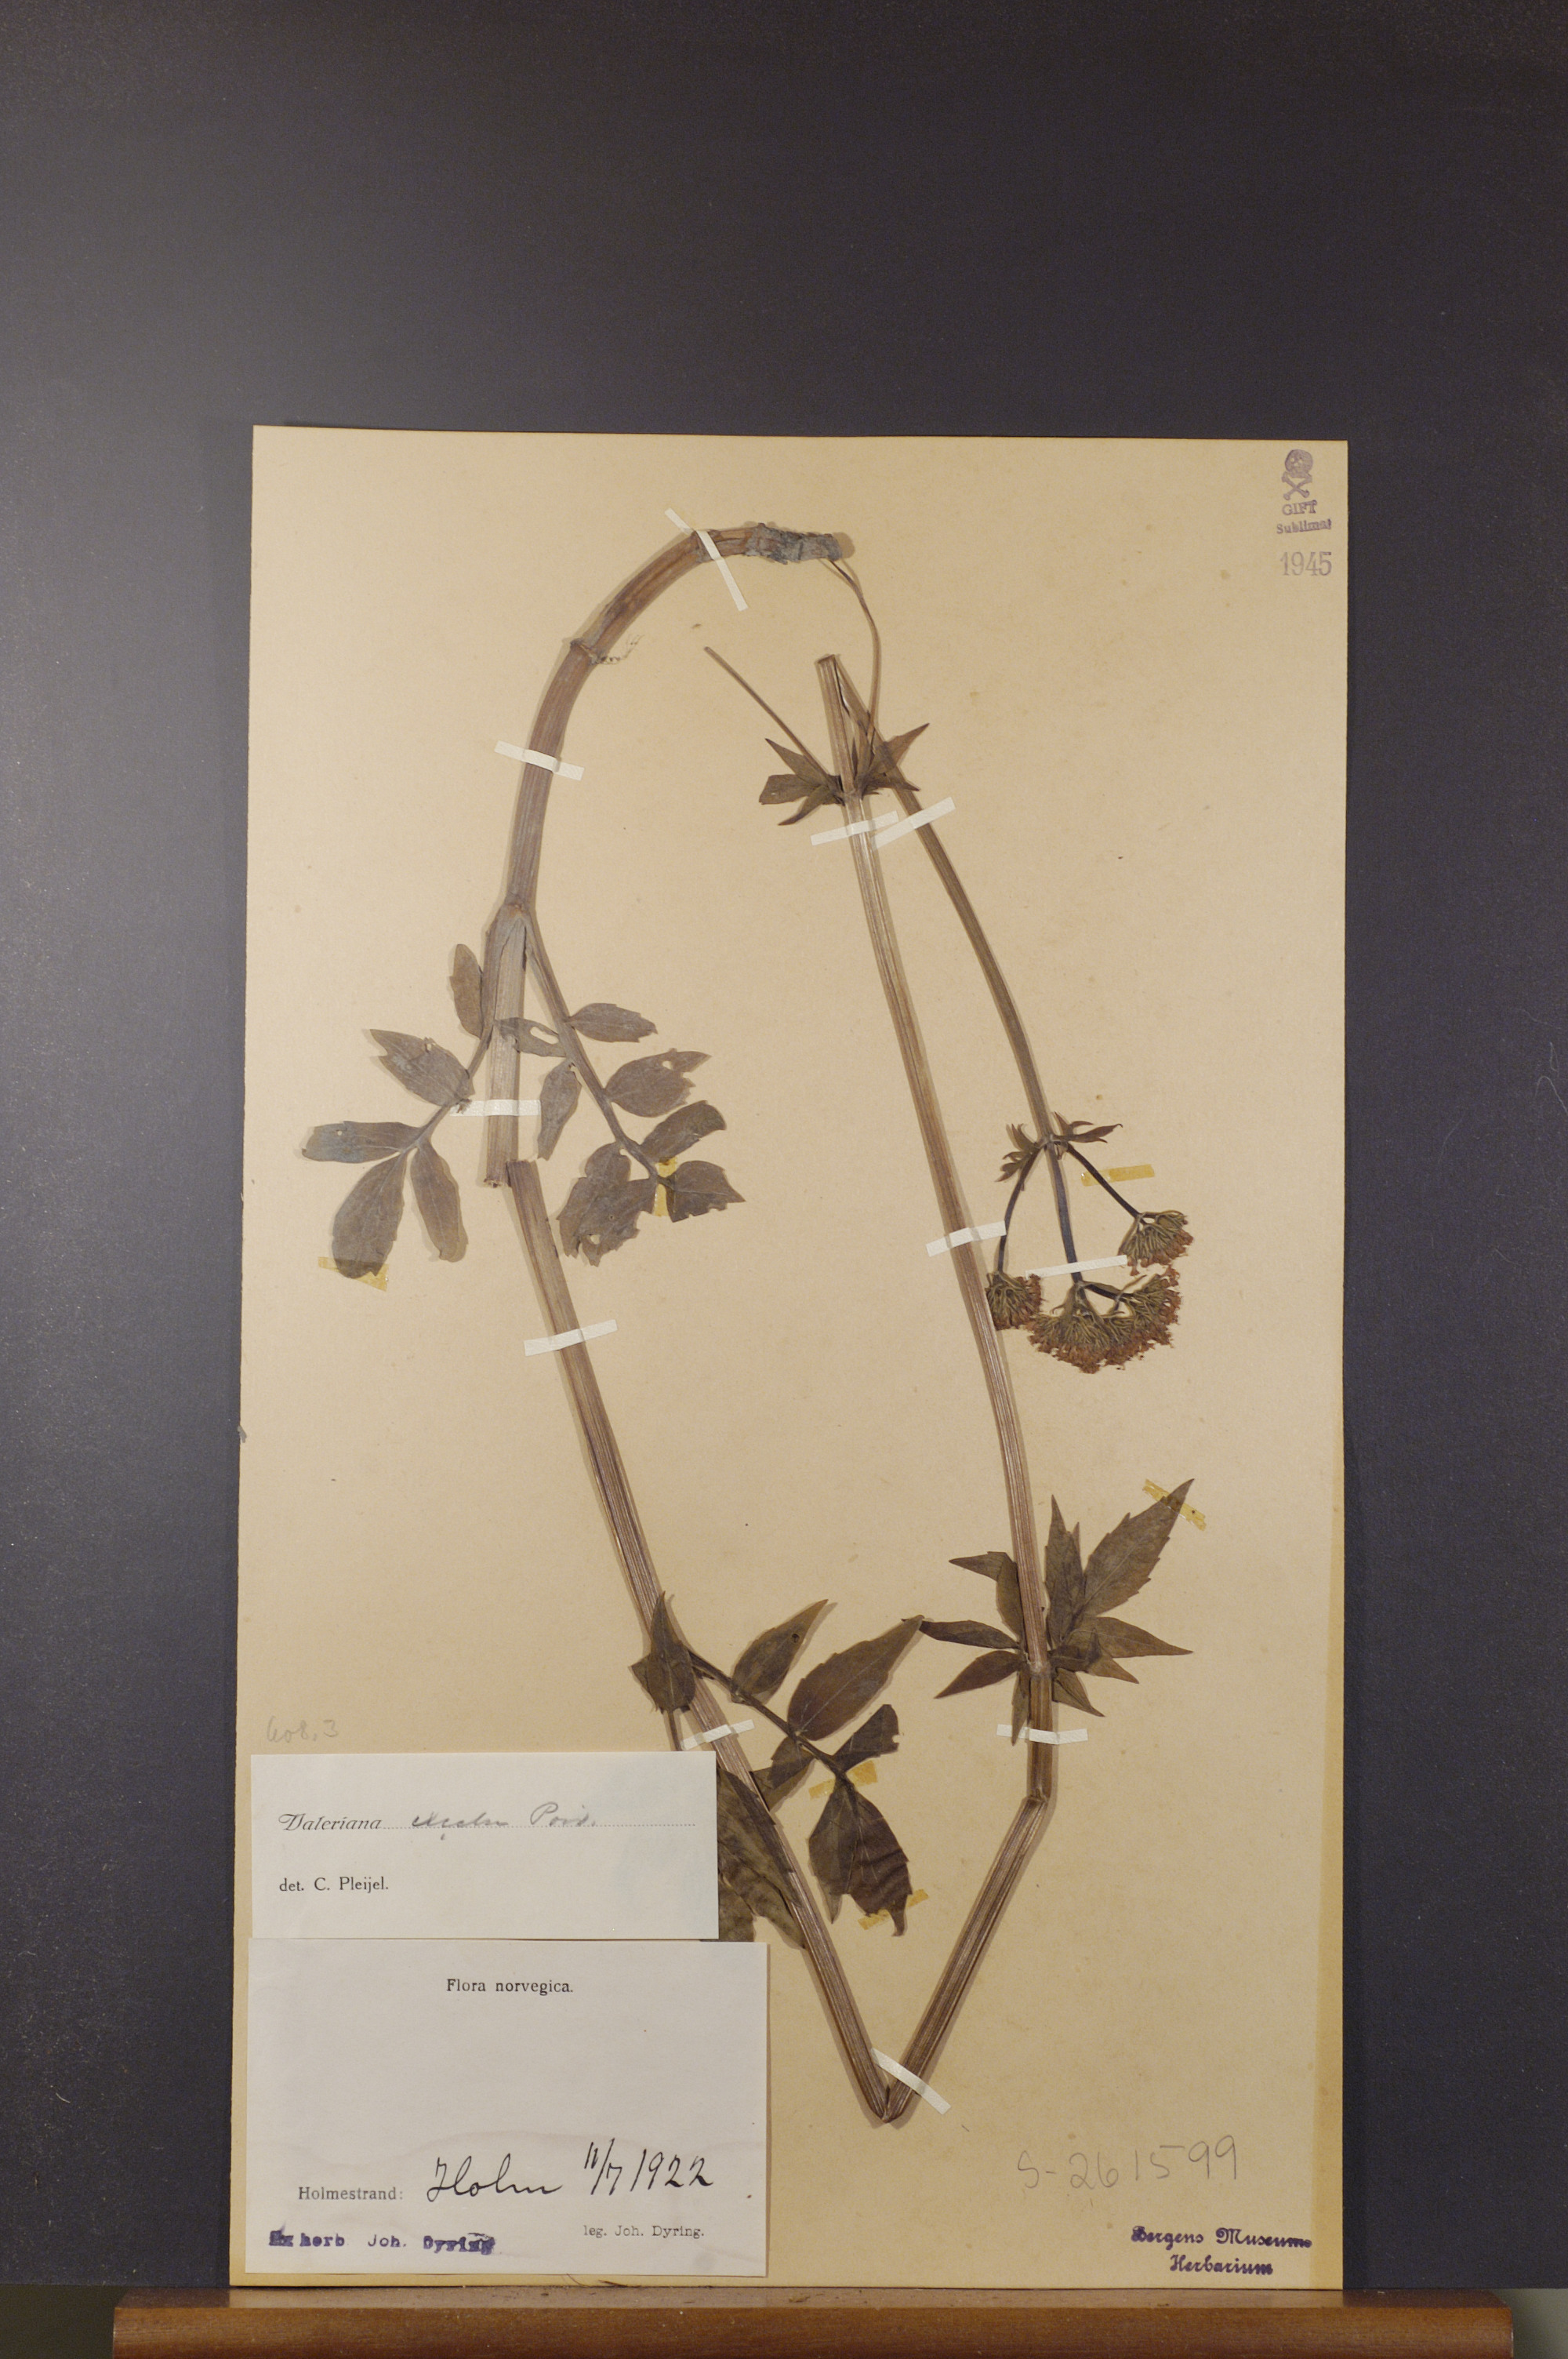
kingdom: Plantae
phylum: Tracheophyta
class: Magnoliopsida
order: Dipsacales
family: Caprifoliaceae
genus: Valeriana
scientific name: Valeriana sambucifolia
